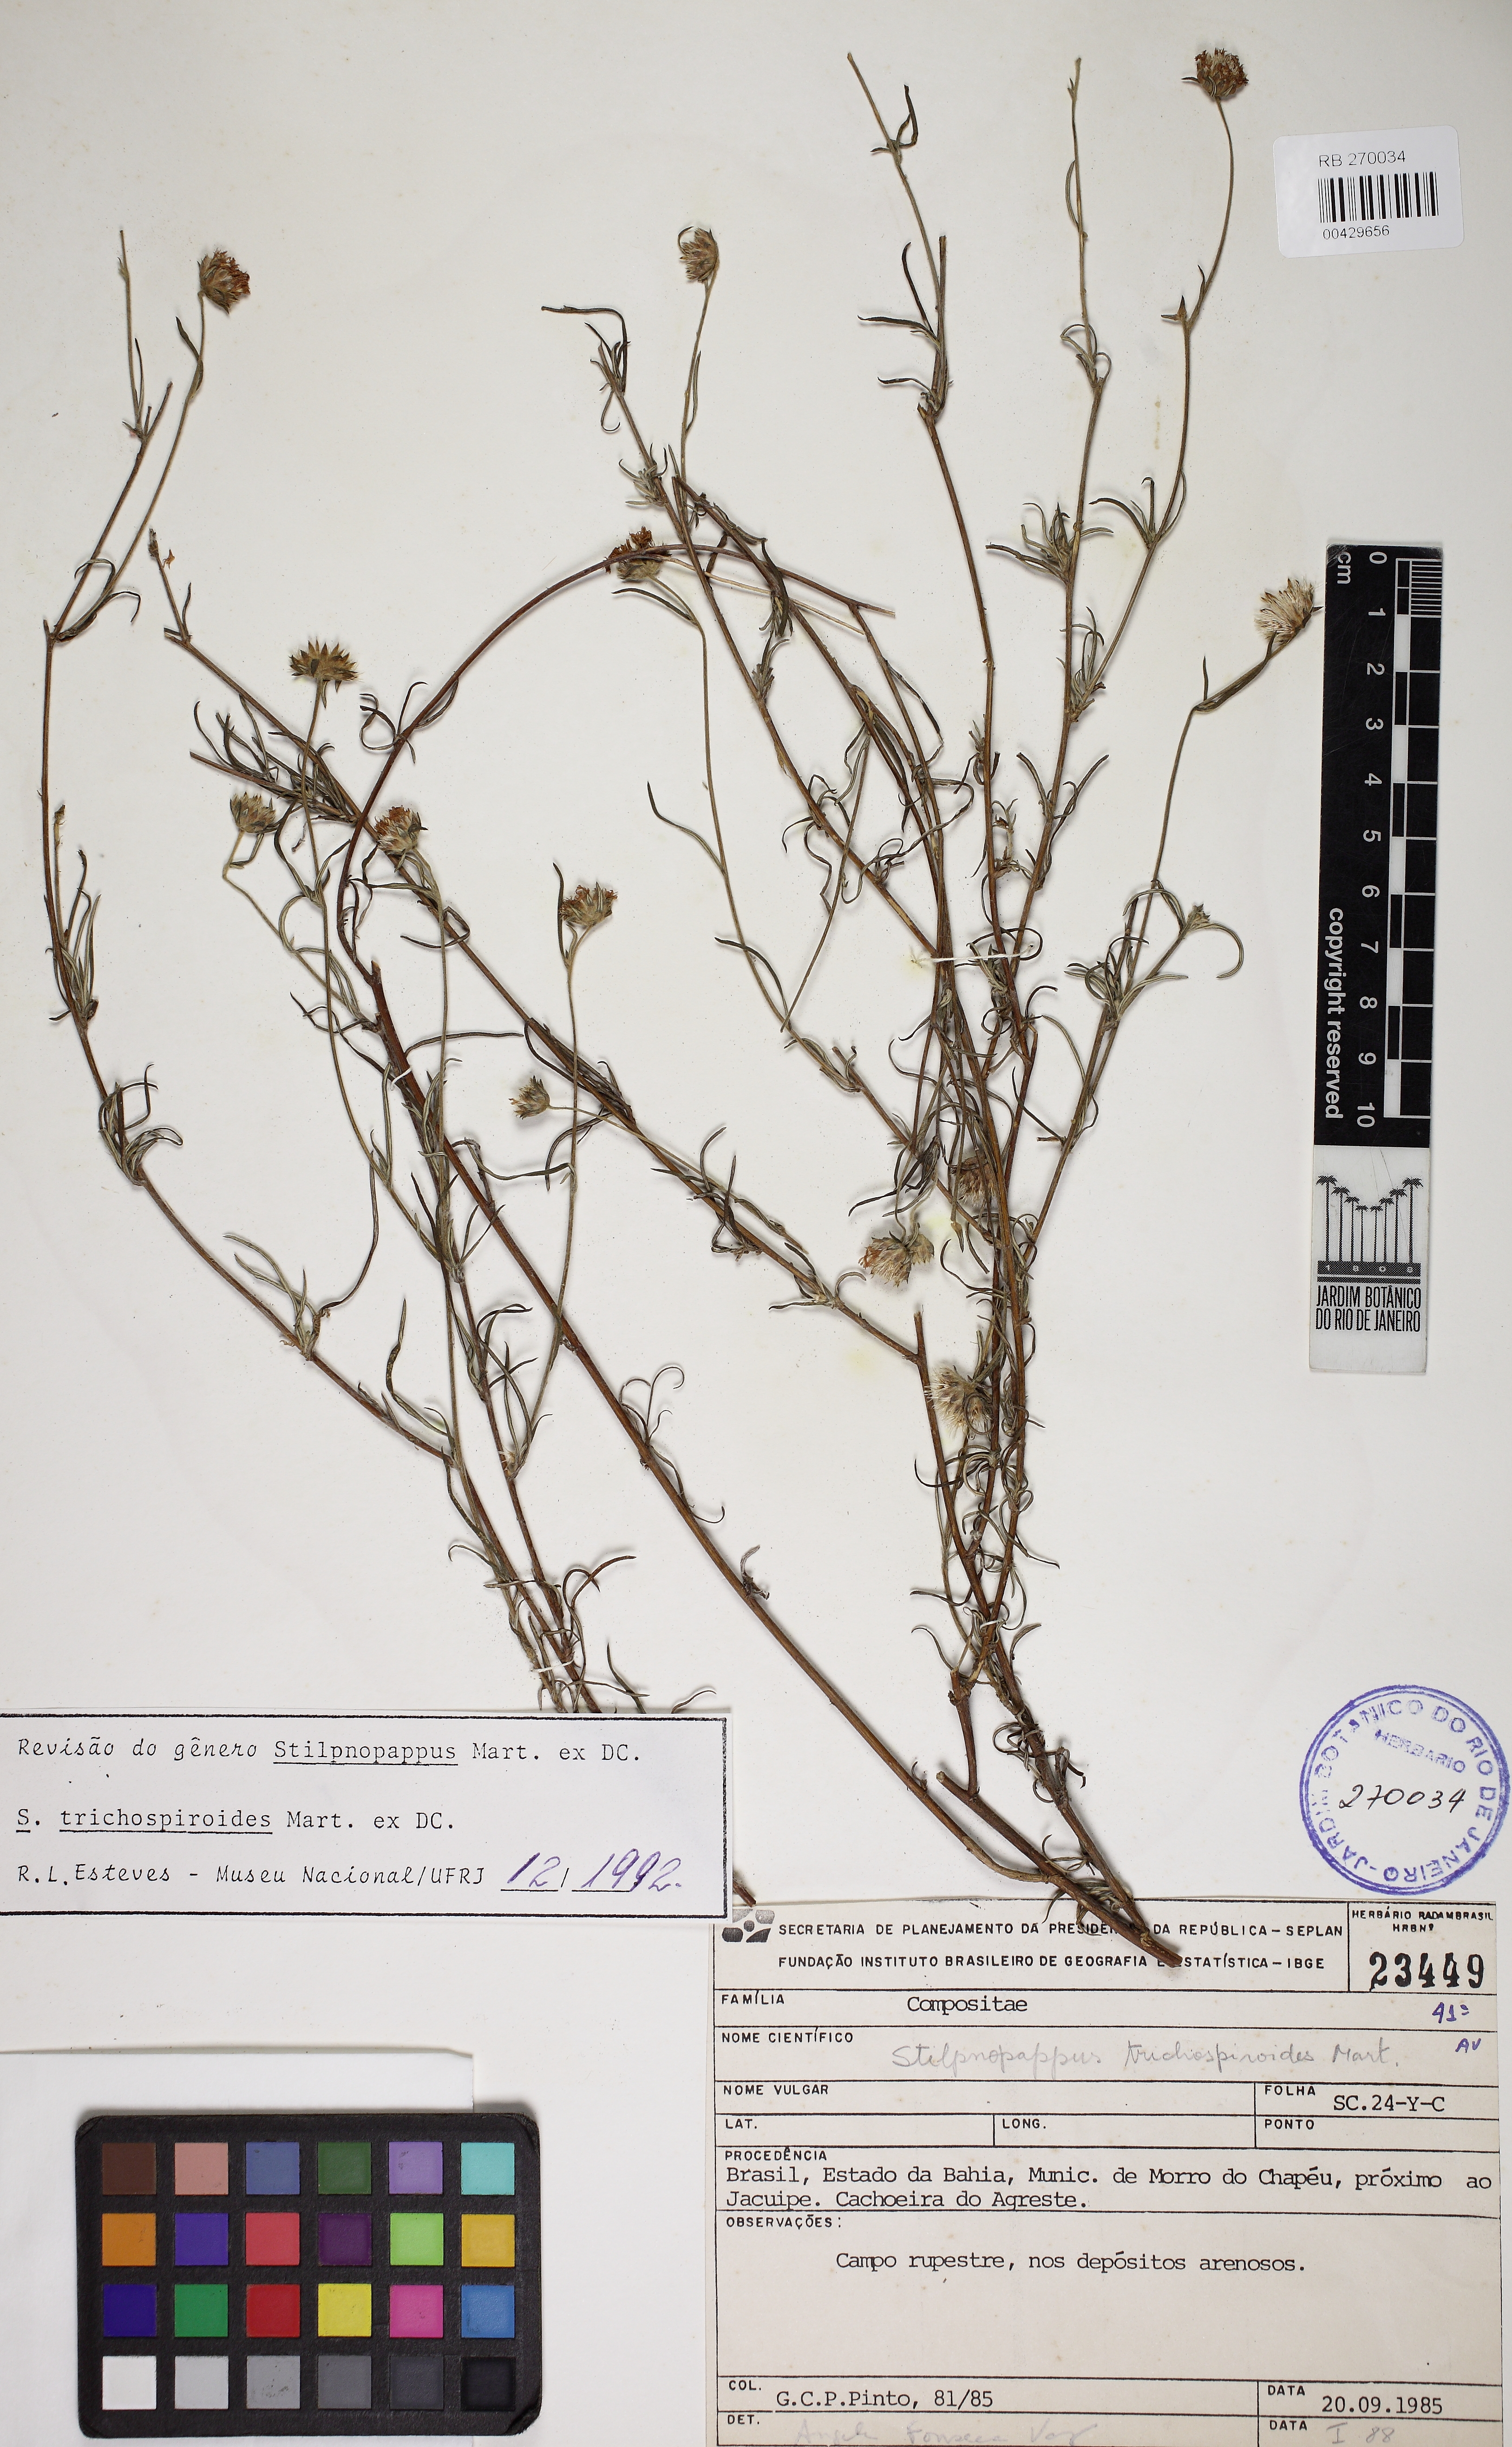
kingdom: Plantae
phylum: Tracheophyta
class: Magnoliopsida
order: Asterales
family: Asteraceae
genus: Stilpnopappus
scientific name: Stilpnopappus tomentosus
